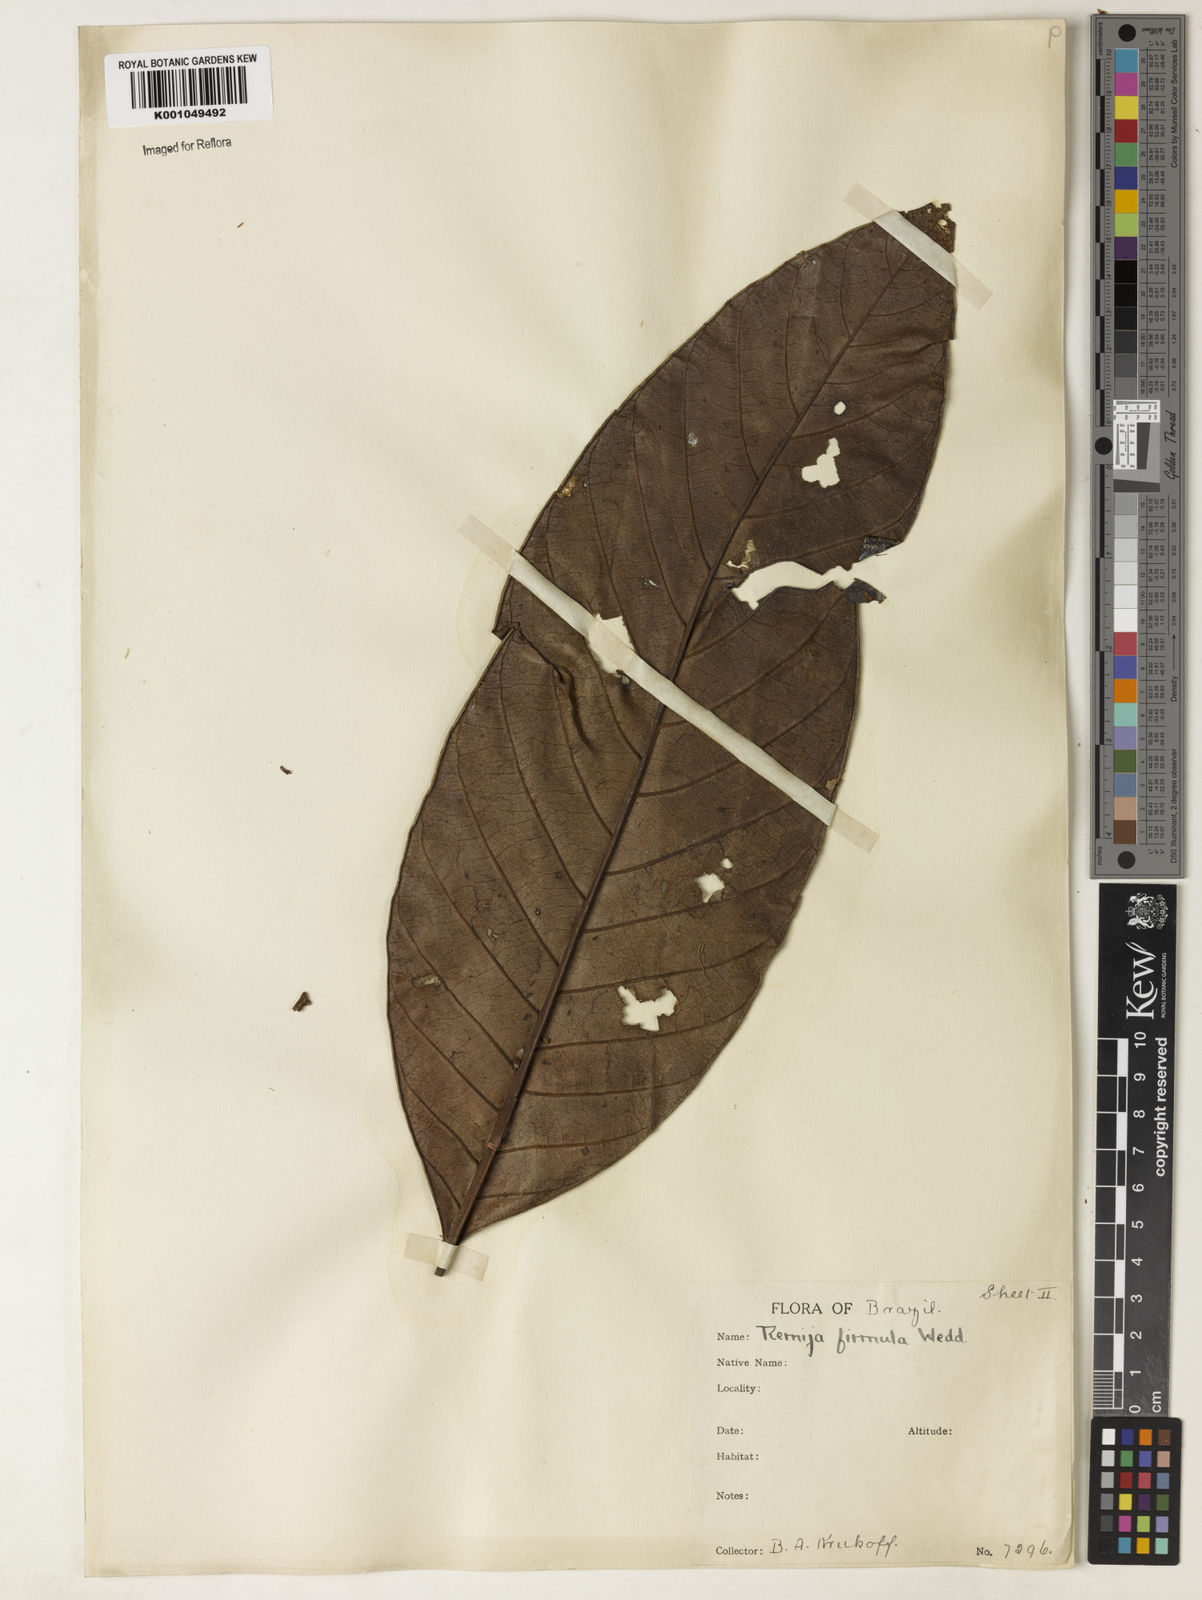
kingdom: Plantae
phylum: Tracheophyta
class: Magnoliopsida
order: Gentianales
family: Rubiaceae
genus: Remijia
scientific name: Remijia firmula
